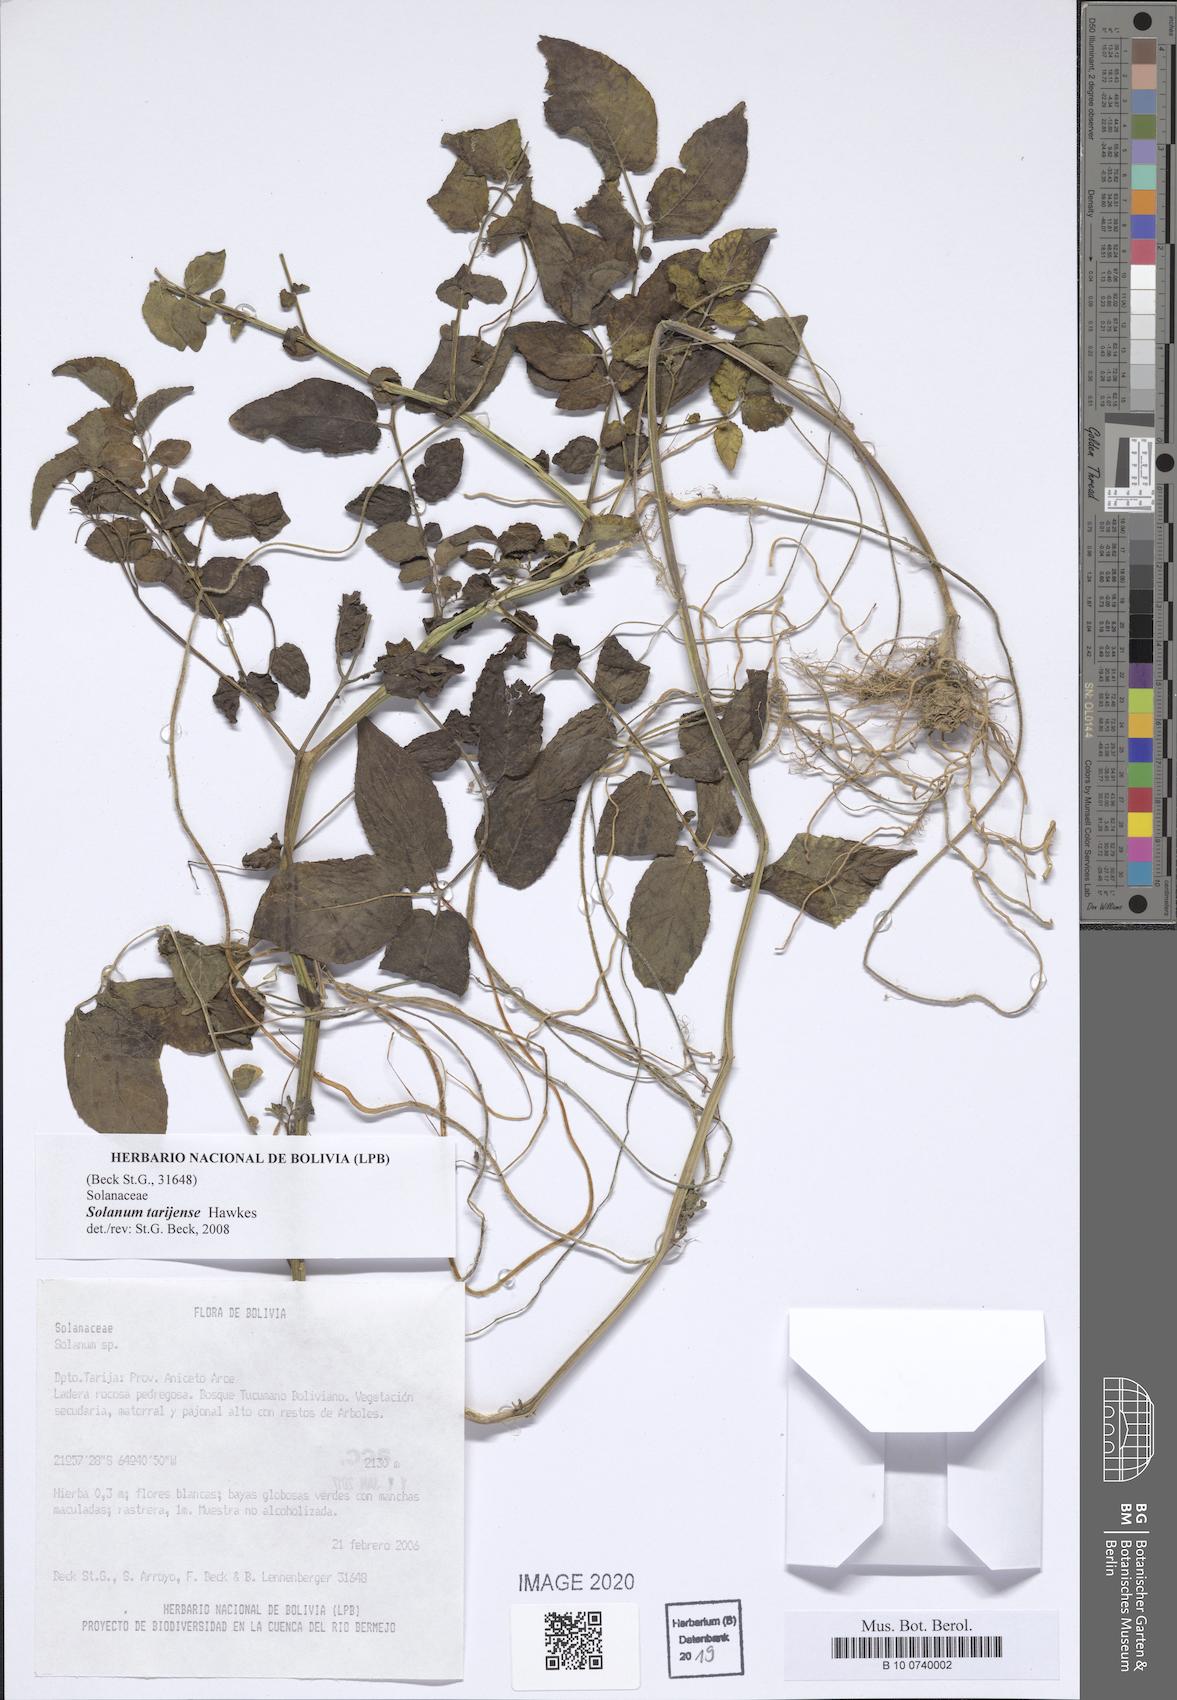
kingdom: Plantae
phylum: Tracheophyta
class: Magnoliopsida
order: Solanales
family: Solanaceae
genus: Solanum
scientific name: Solanum tarijense
